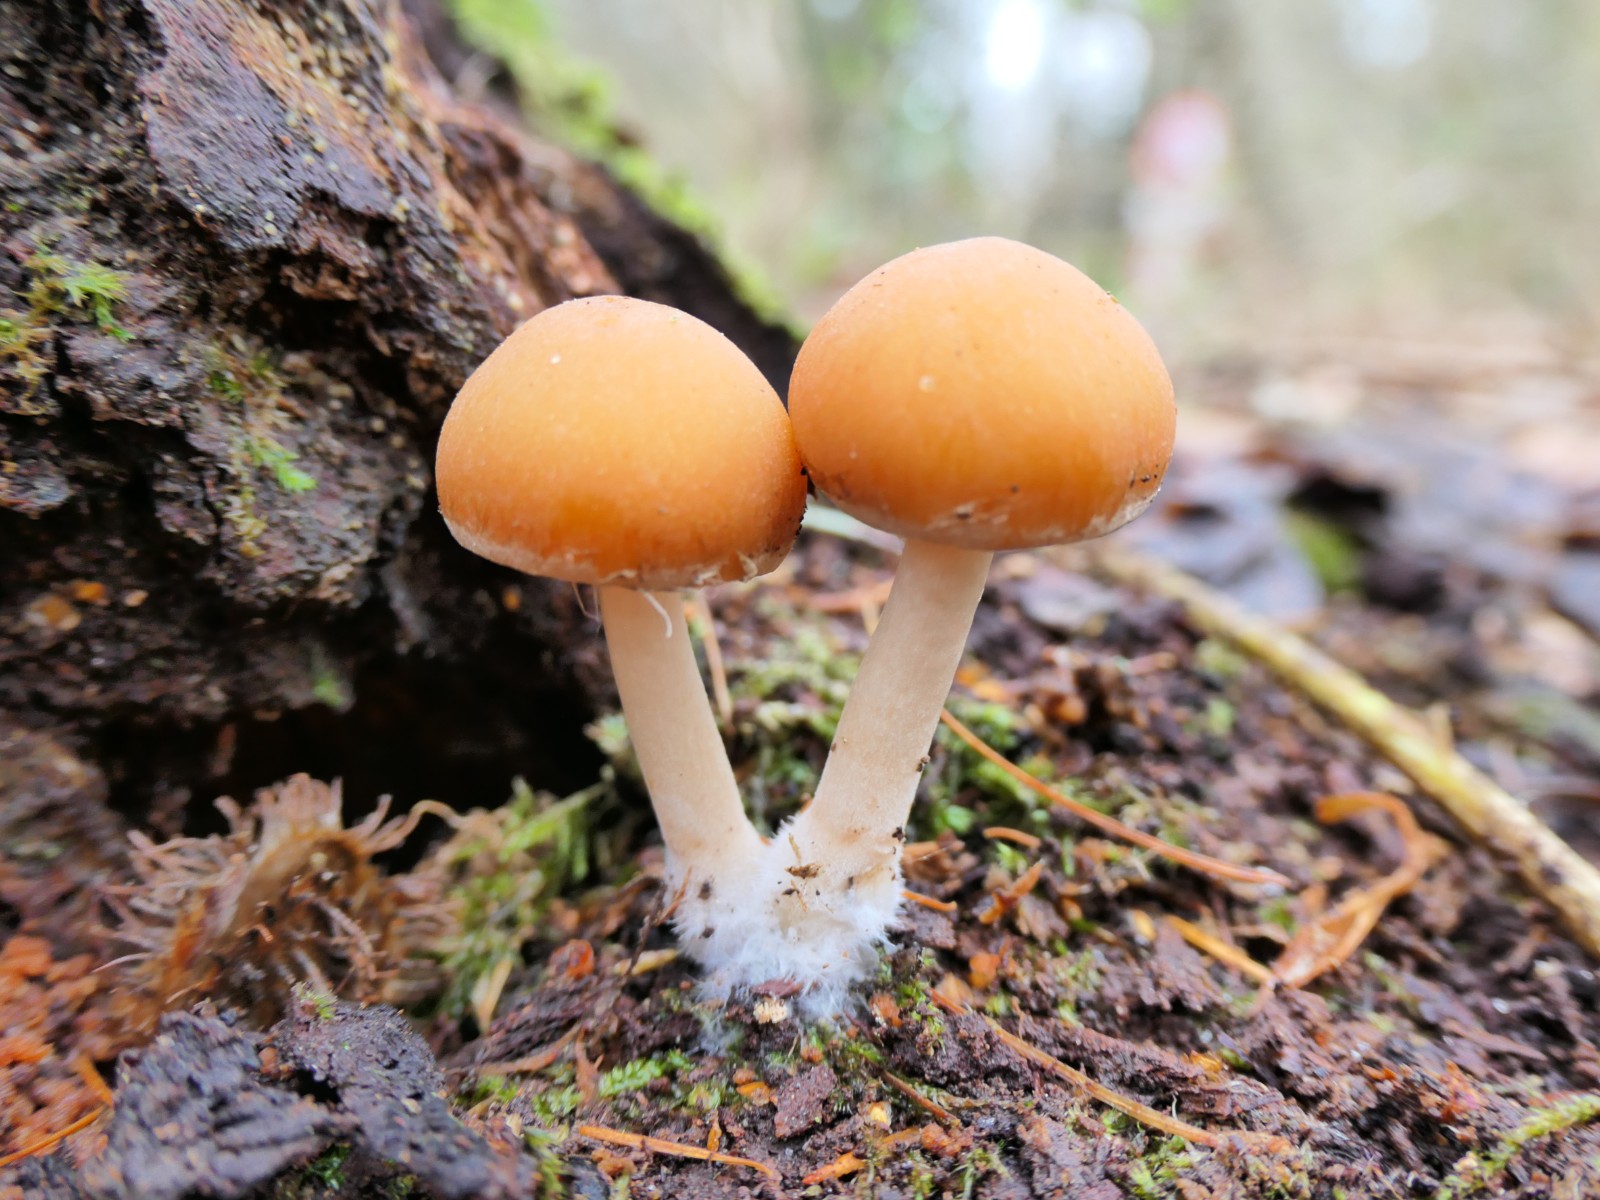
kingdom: Fungi
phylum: Basidiomycota
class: Agaricomycetes
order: Agaricales
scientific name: Agaricales
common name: champignonordenen
